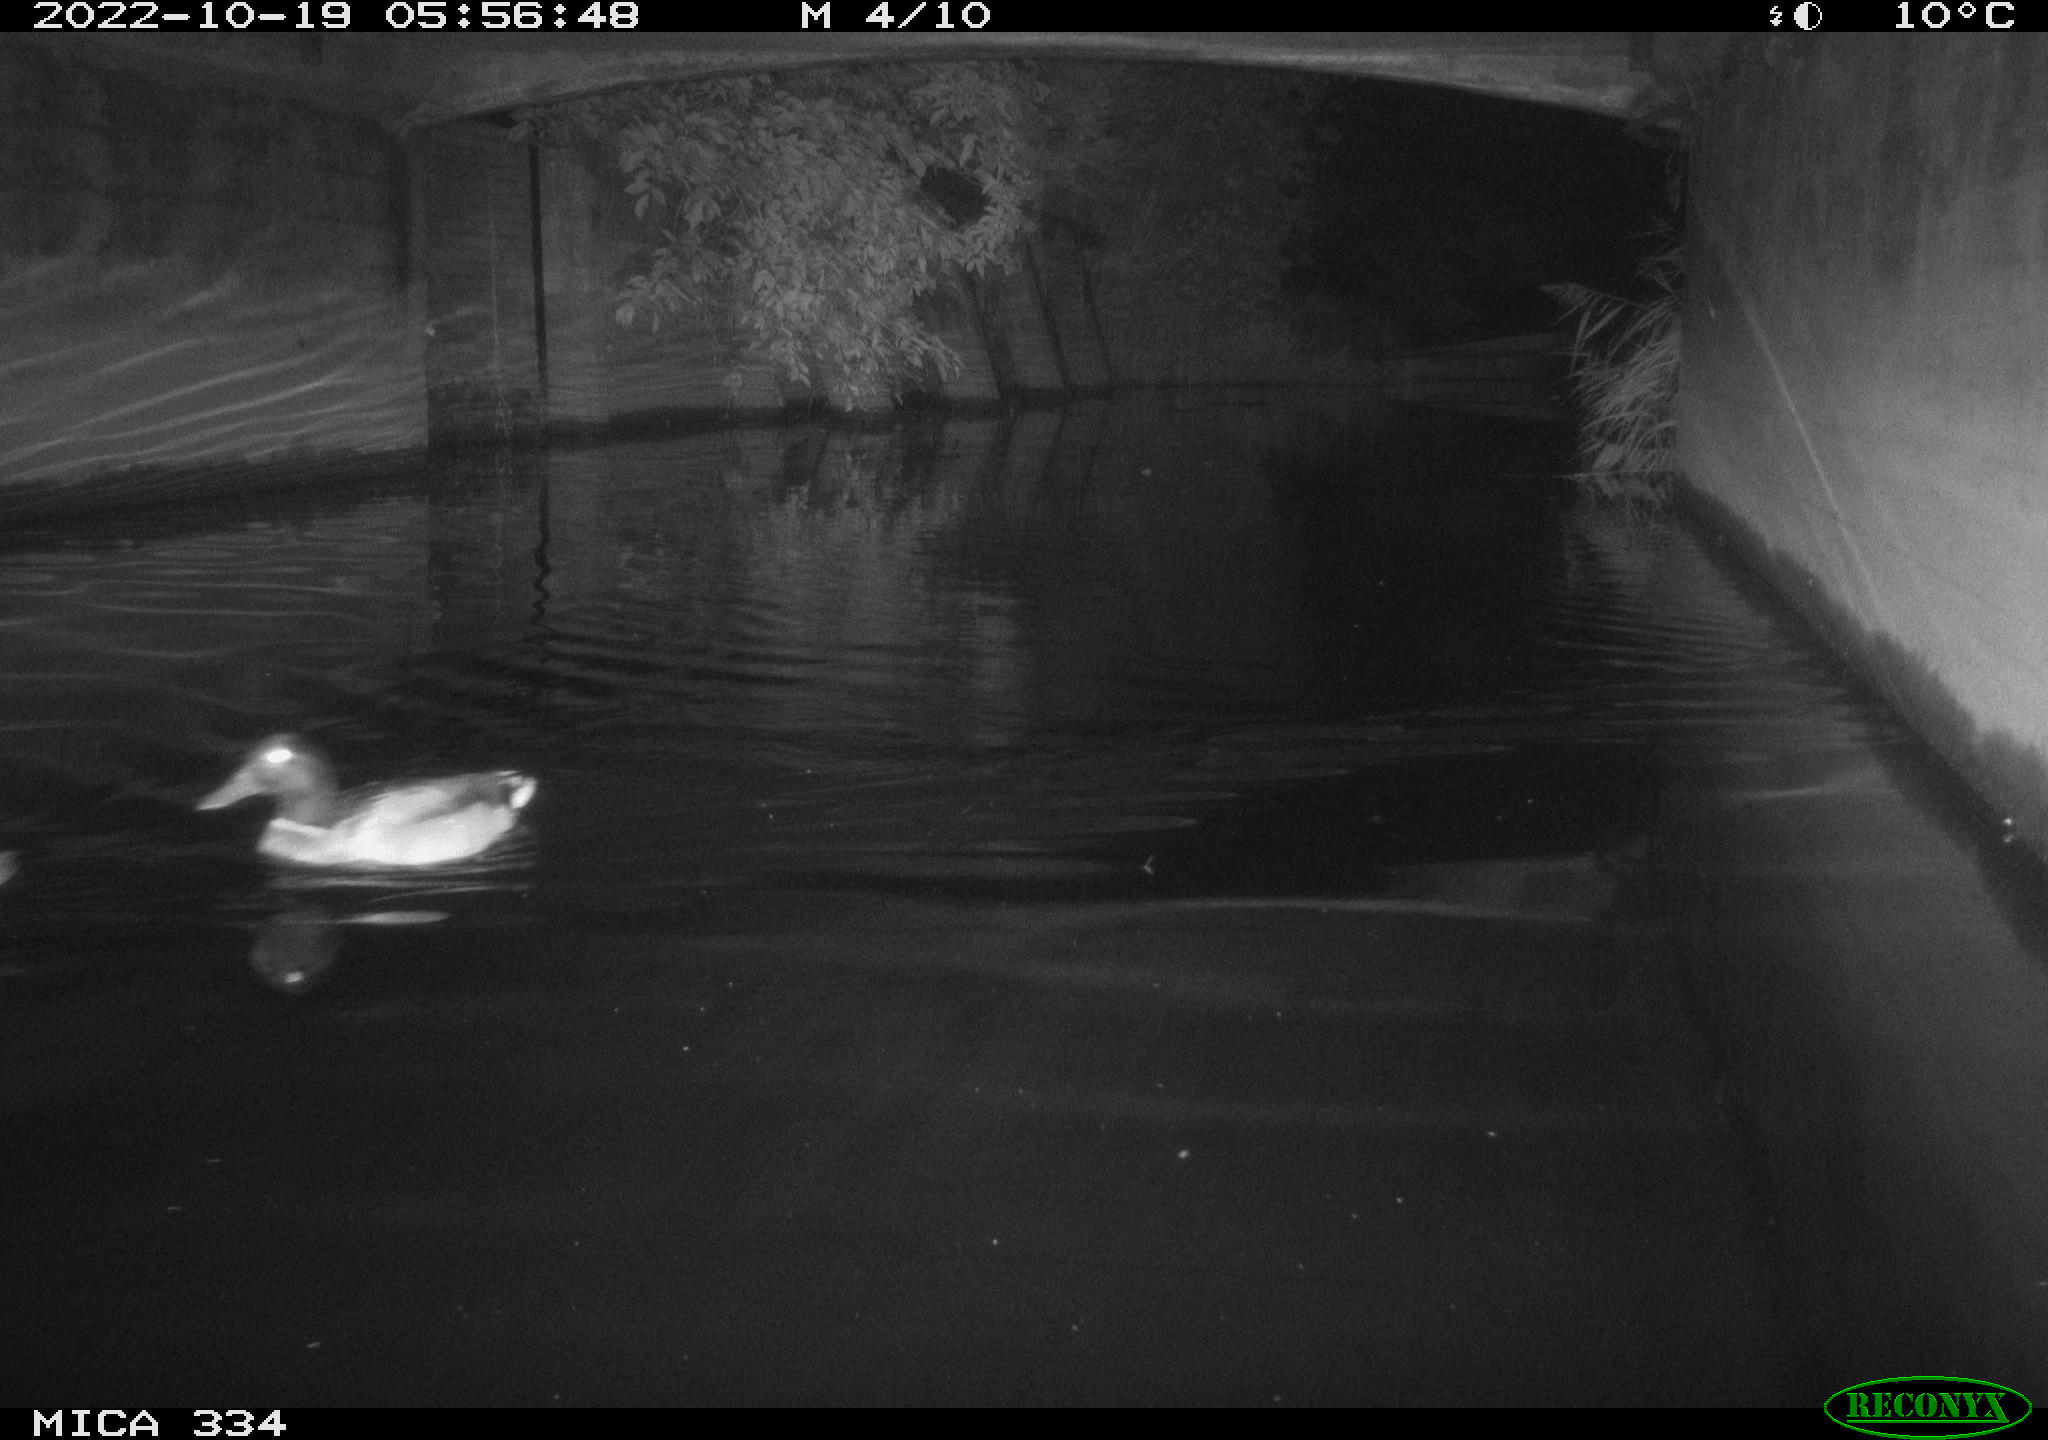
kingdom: Animalia
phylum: Chordata
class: Aves
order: Anseriformes
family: Anatidae
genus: Anas
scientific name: Anas platyrhynchos
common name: Mallard
